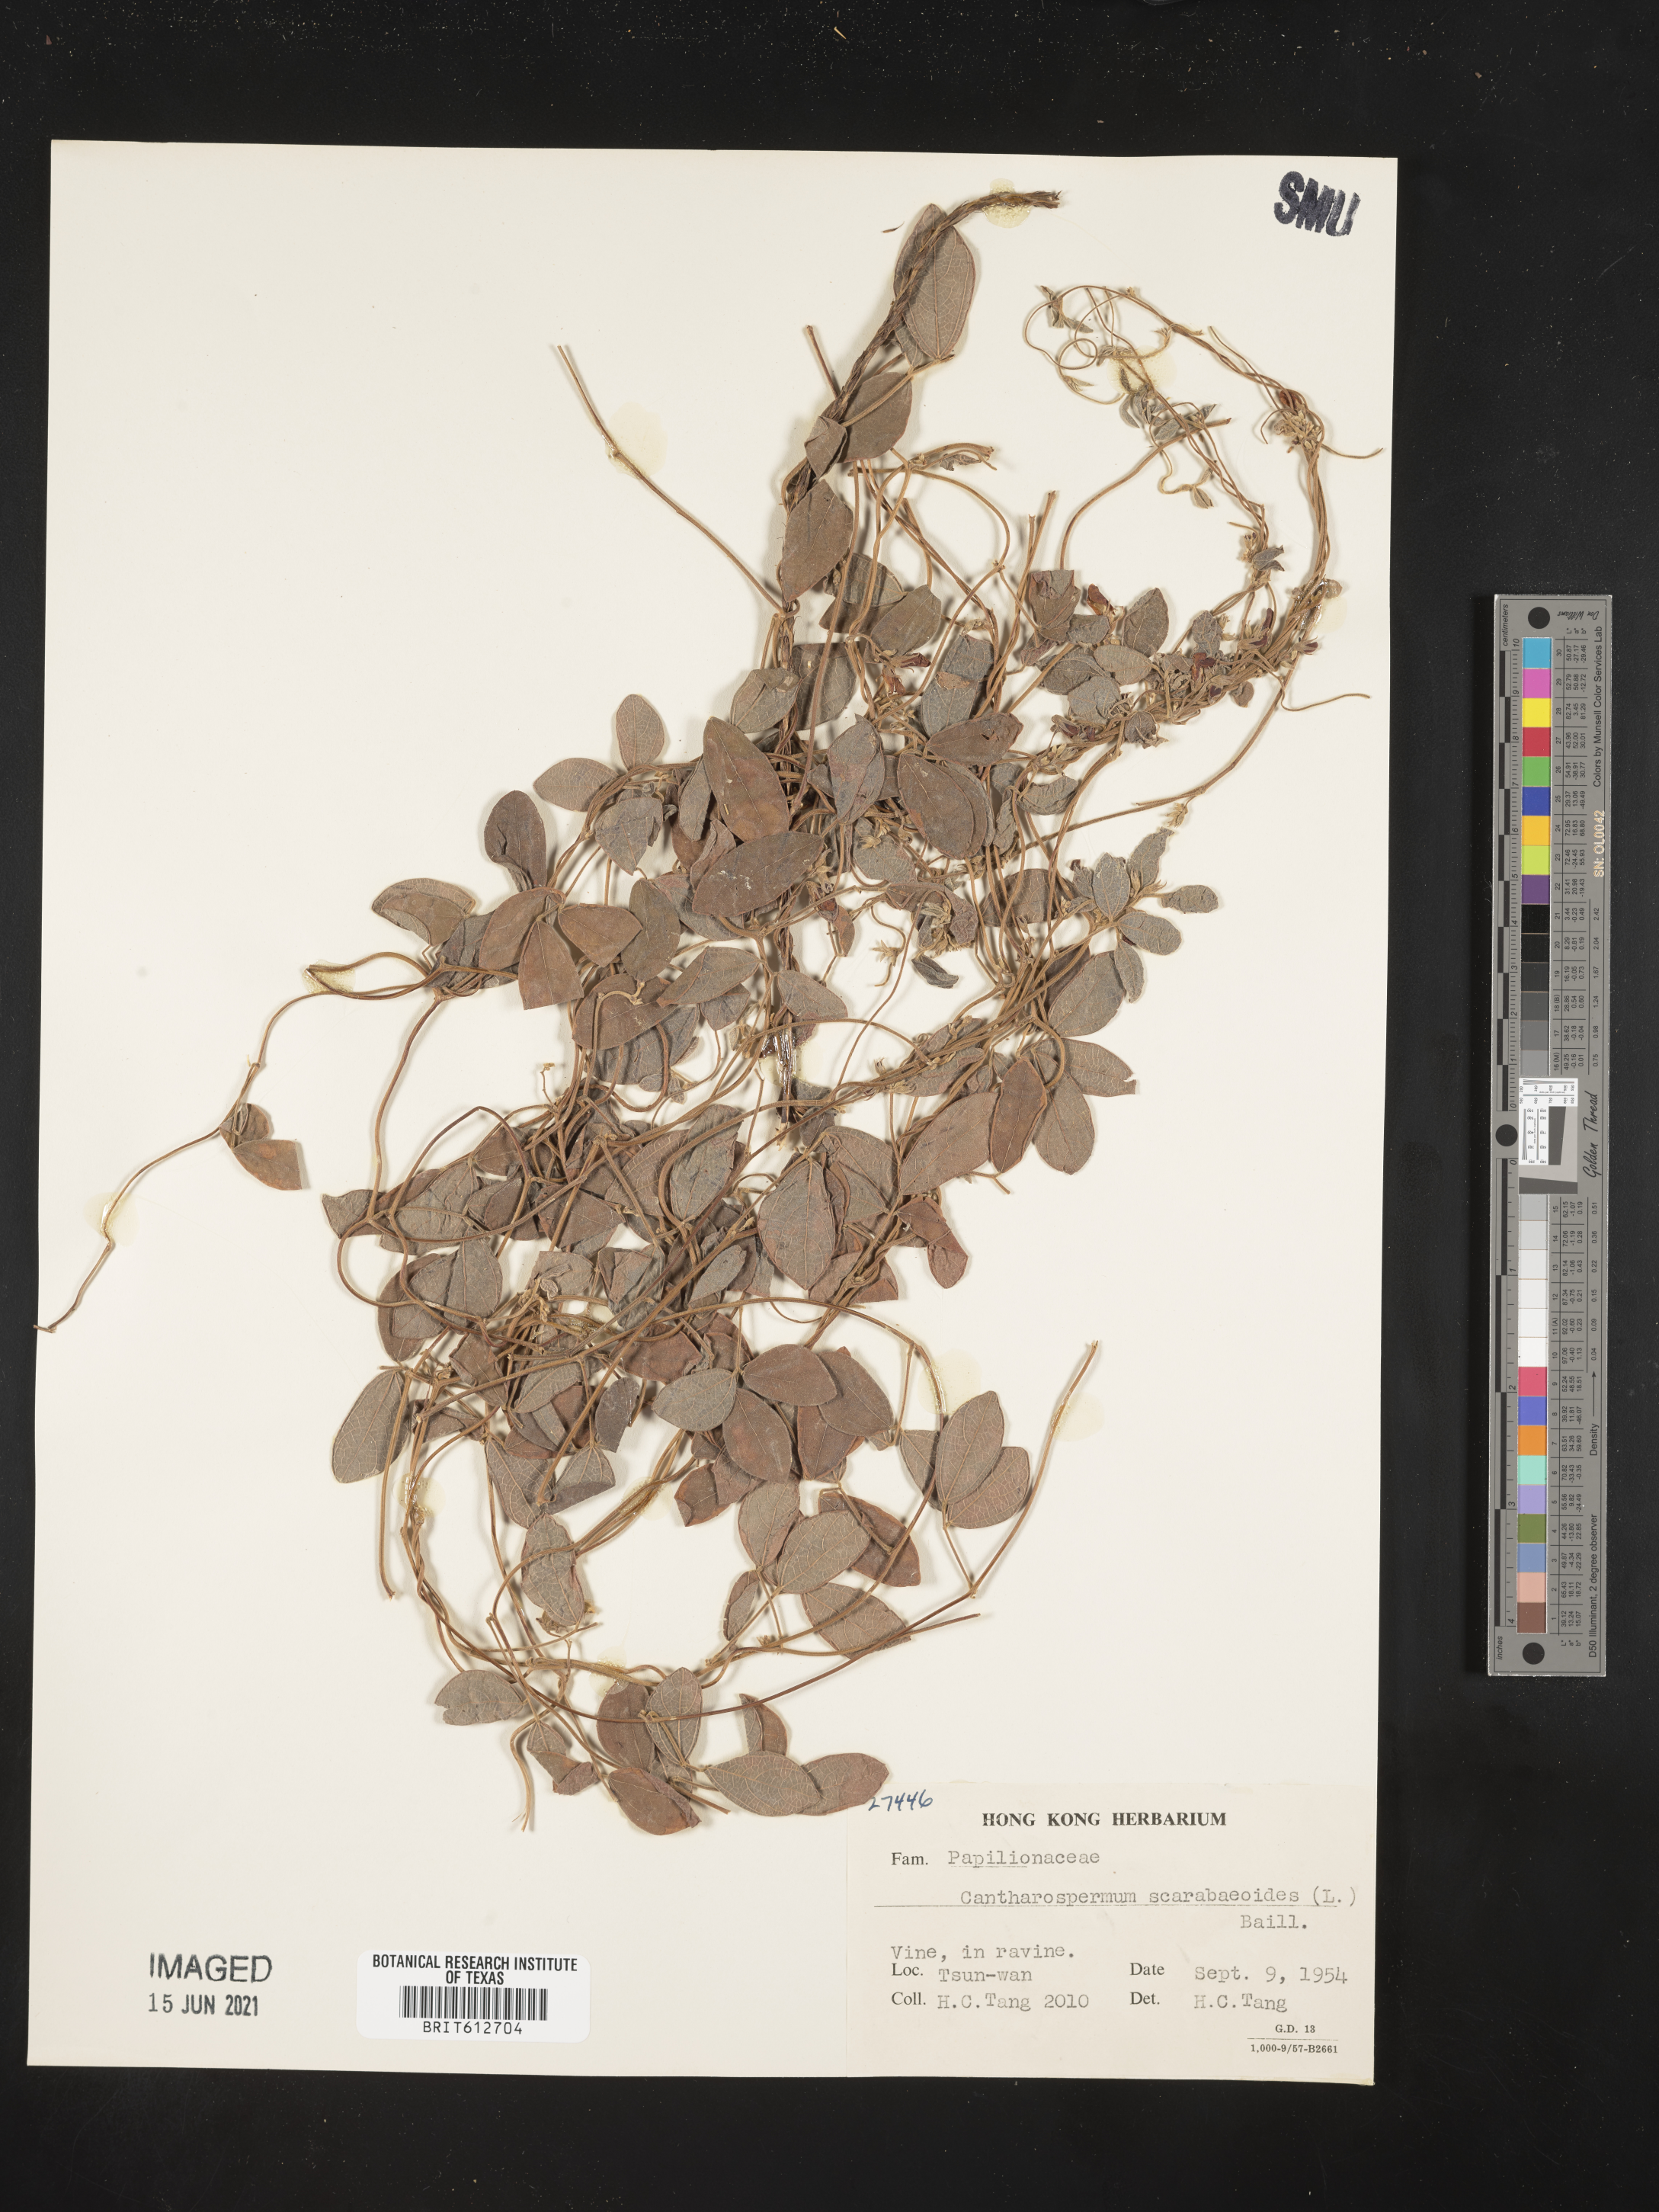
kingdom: Plantae
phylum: Tracheophyta
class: Magnoliopsida
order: Fabales
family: Fabaceae
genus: Cajanus
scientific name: Cajanus scarabaeoides
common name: Showy pigeonpea
